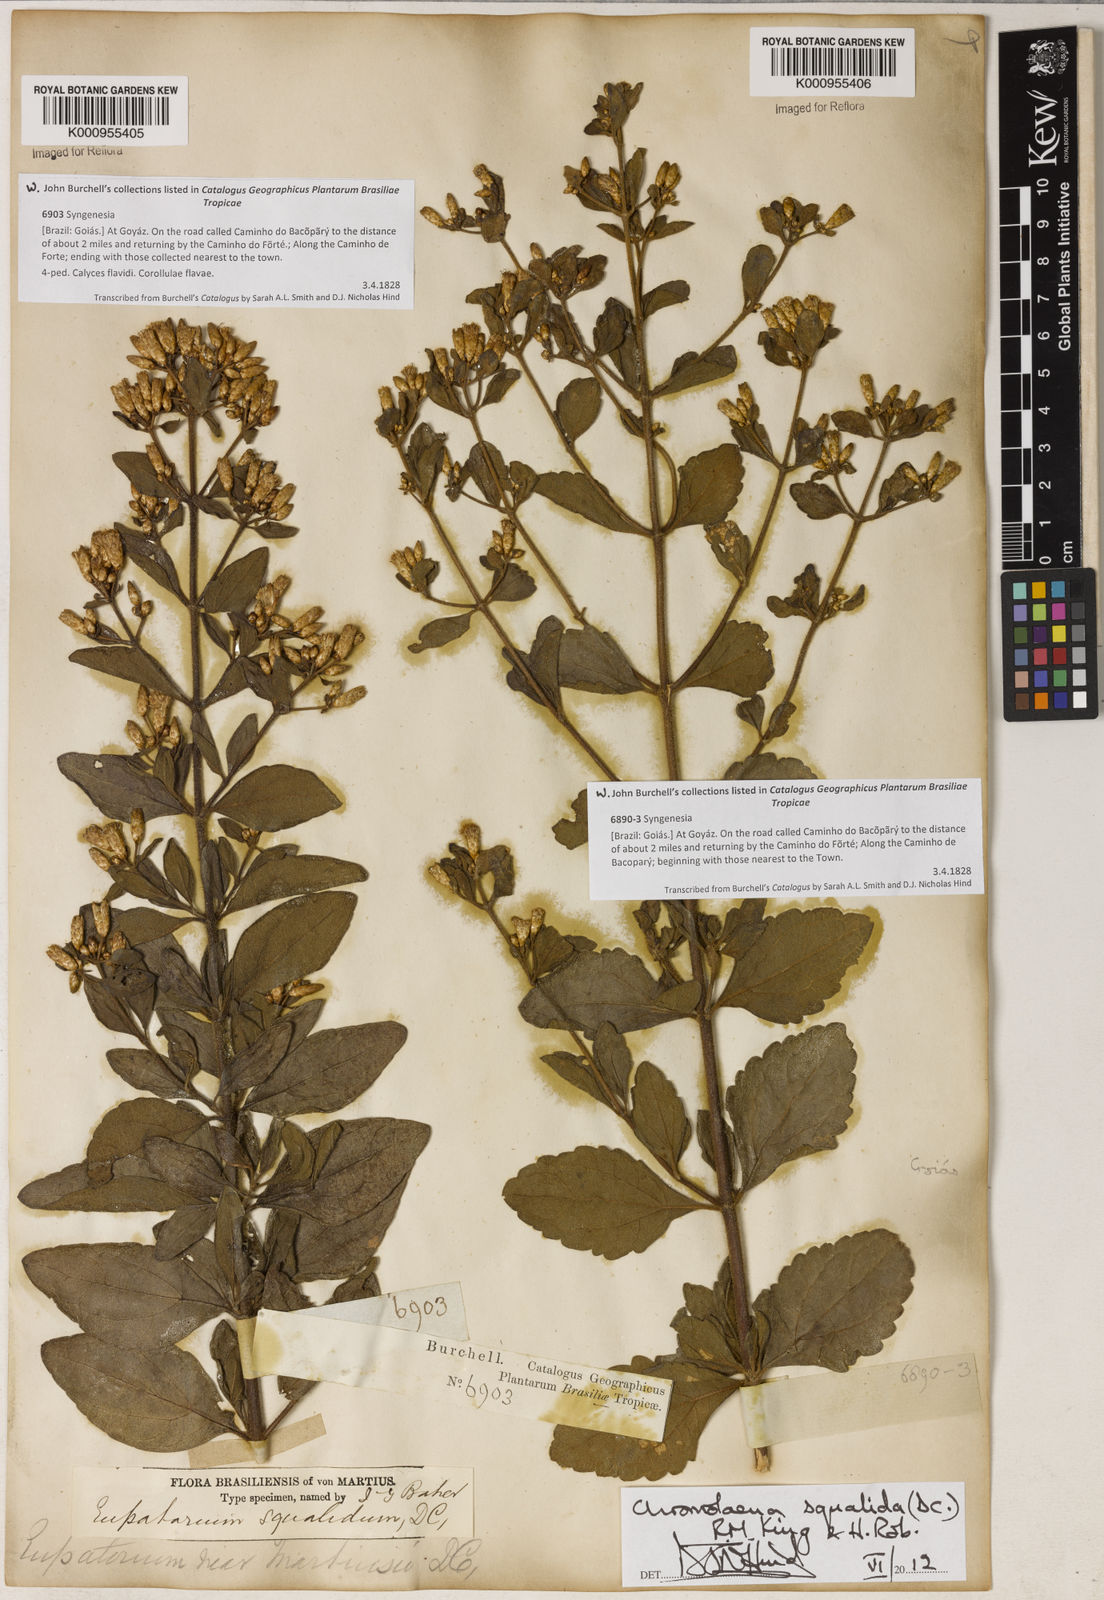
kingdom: Plantae
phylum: Tracheophyta
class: Magnoliopsida
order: Asterales
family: Asteraceae
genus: Chromolaena
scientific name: Chromolaena squalida
